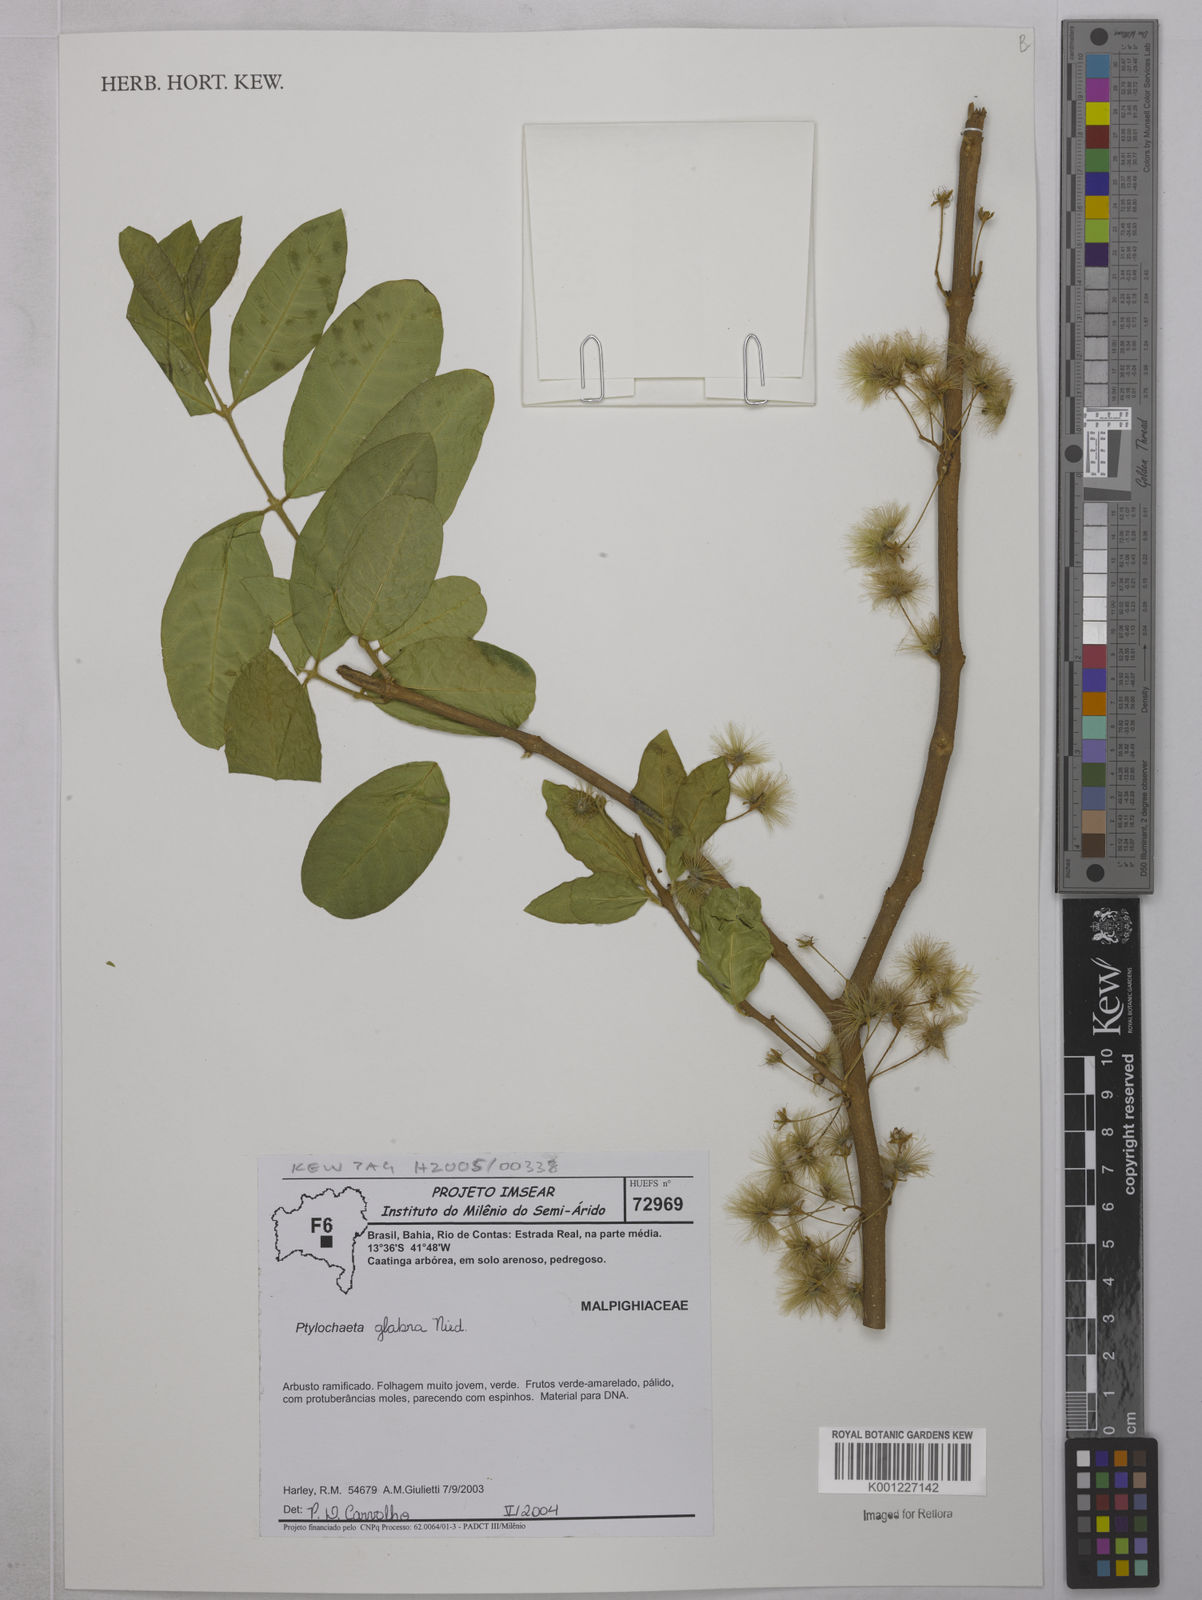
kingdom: Plantae
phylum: Tracheophyta
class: Magnoliopsida
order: Malpighiales
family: Malpighiaceae
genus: Ptilochaeta
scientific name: Ptilochaeta glabra
